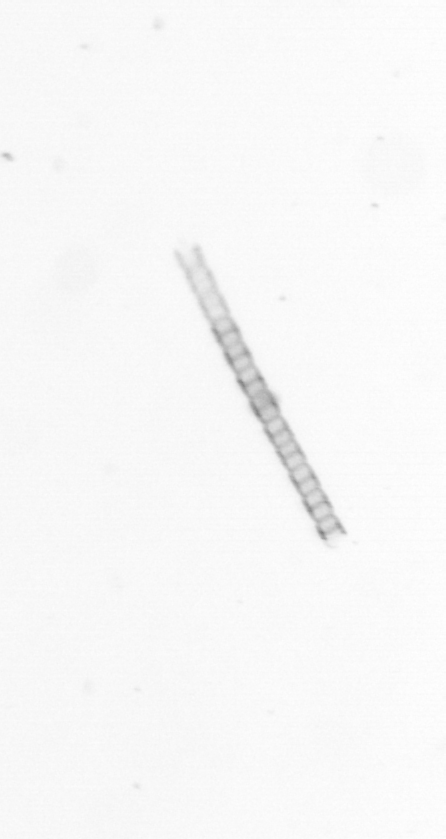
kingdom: Chromista
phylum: Ochrophyta
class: Bacillariophyceae
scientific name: Bacillariophyceae
